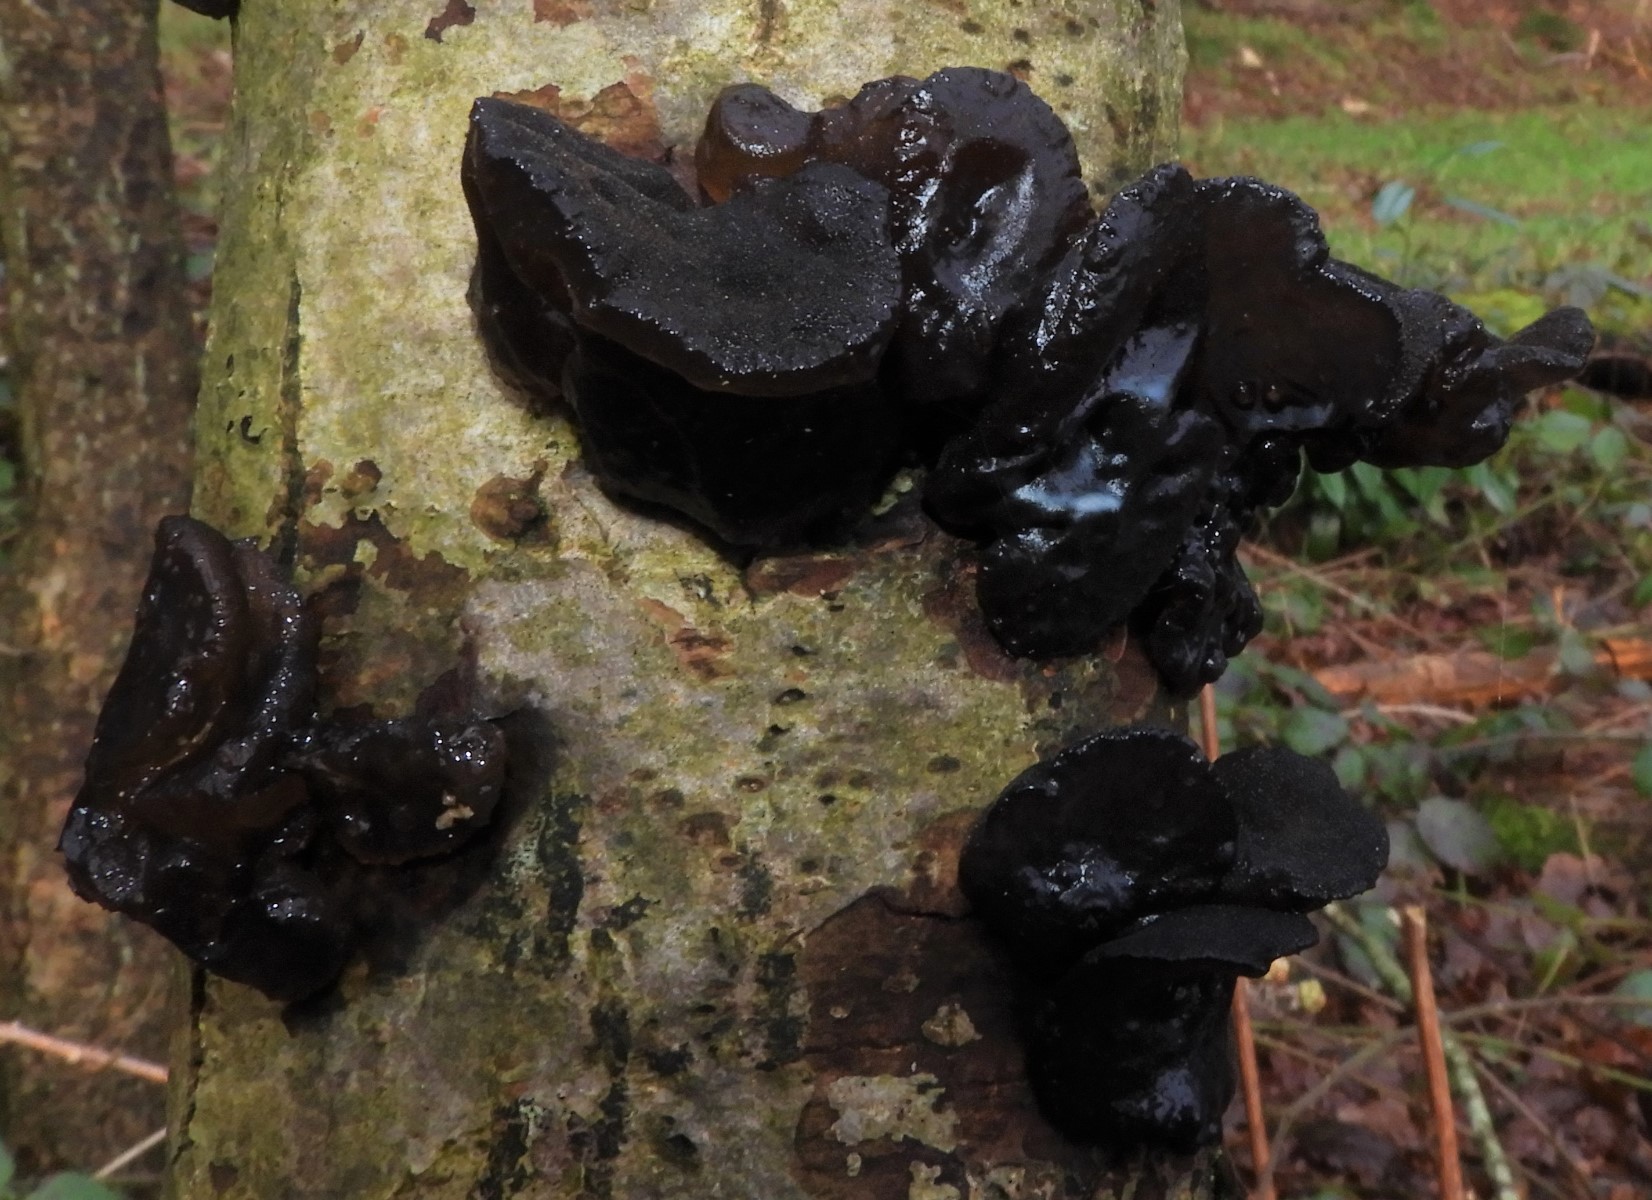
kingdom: Fungi
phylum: Basidiomycota
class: Agaricomycetes
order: Auriculariales
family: Auriculariaceae
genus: Exidia
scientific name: Exidia glandulosa
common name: ege-bævretop
